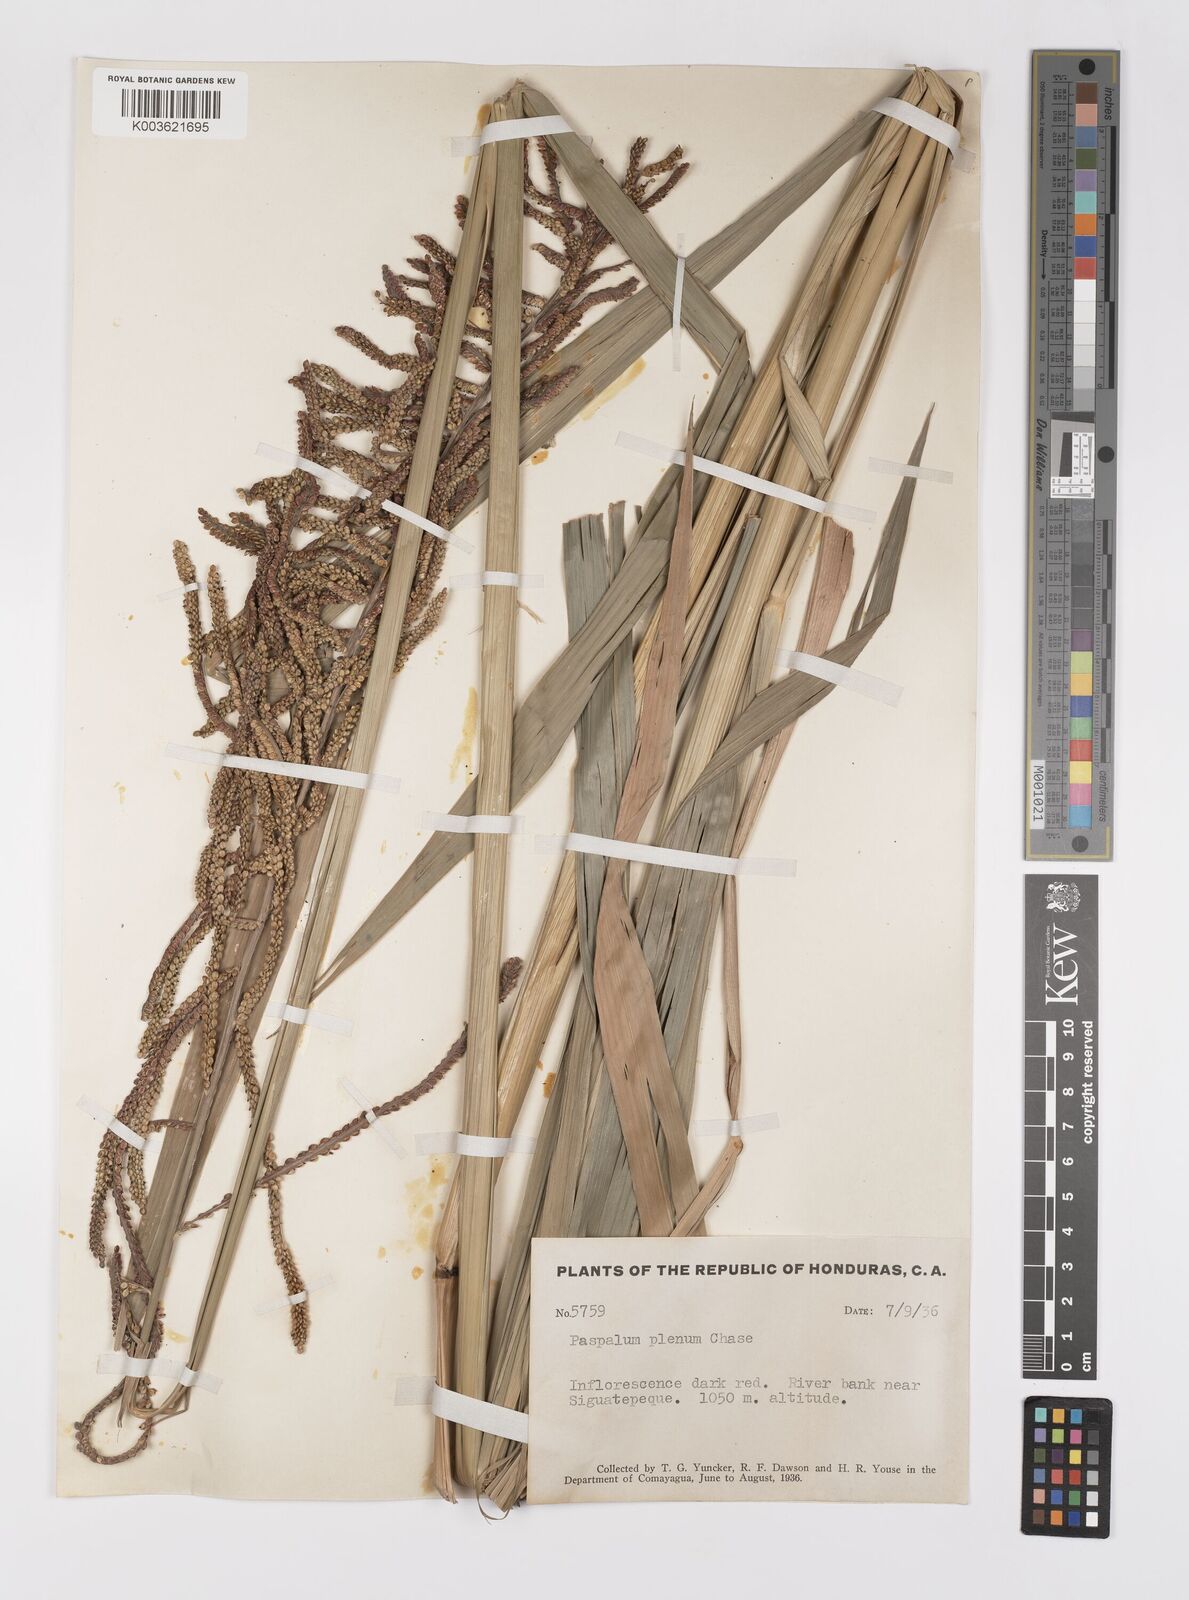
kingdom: Plantae
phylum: Tracheophyta
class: Liliopsida
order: Poales
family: Poaceae
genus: Paspalum
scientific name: Paspalum plenum
